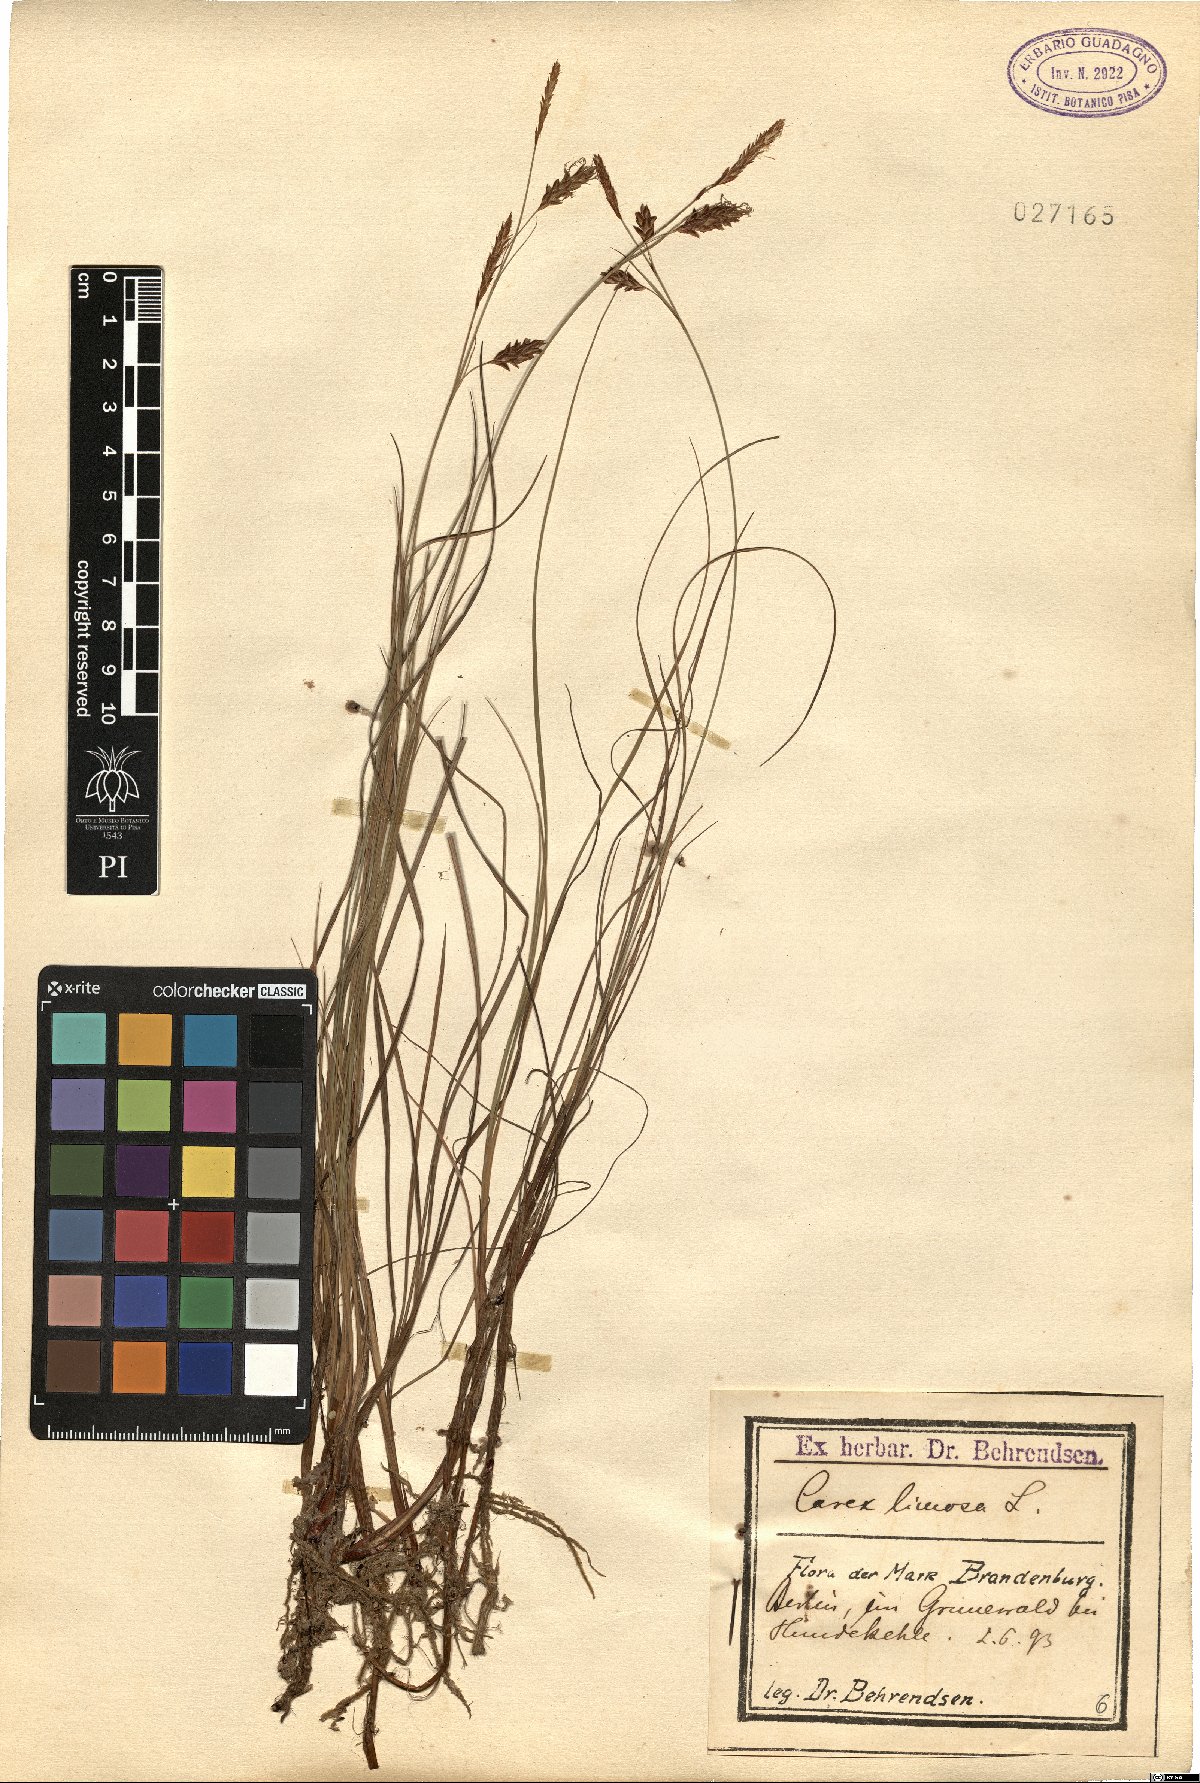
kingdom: Plantae
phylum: Tracheophyta
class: Liliopsida
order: Poales
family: Cyperaceae
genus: Carex
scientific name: Carex limosa
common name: Bog sedge
